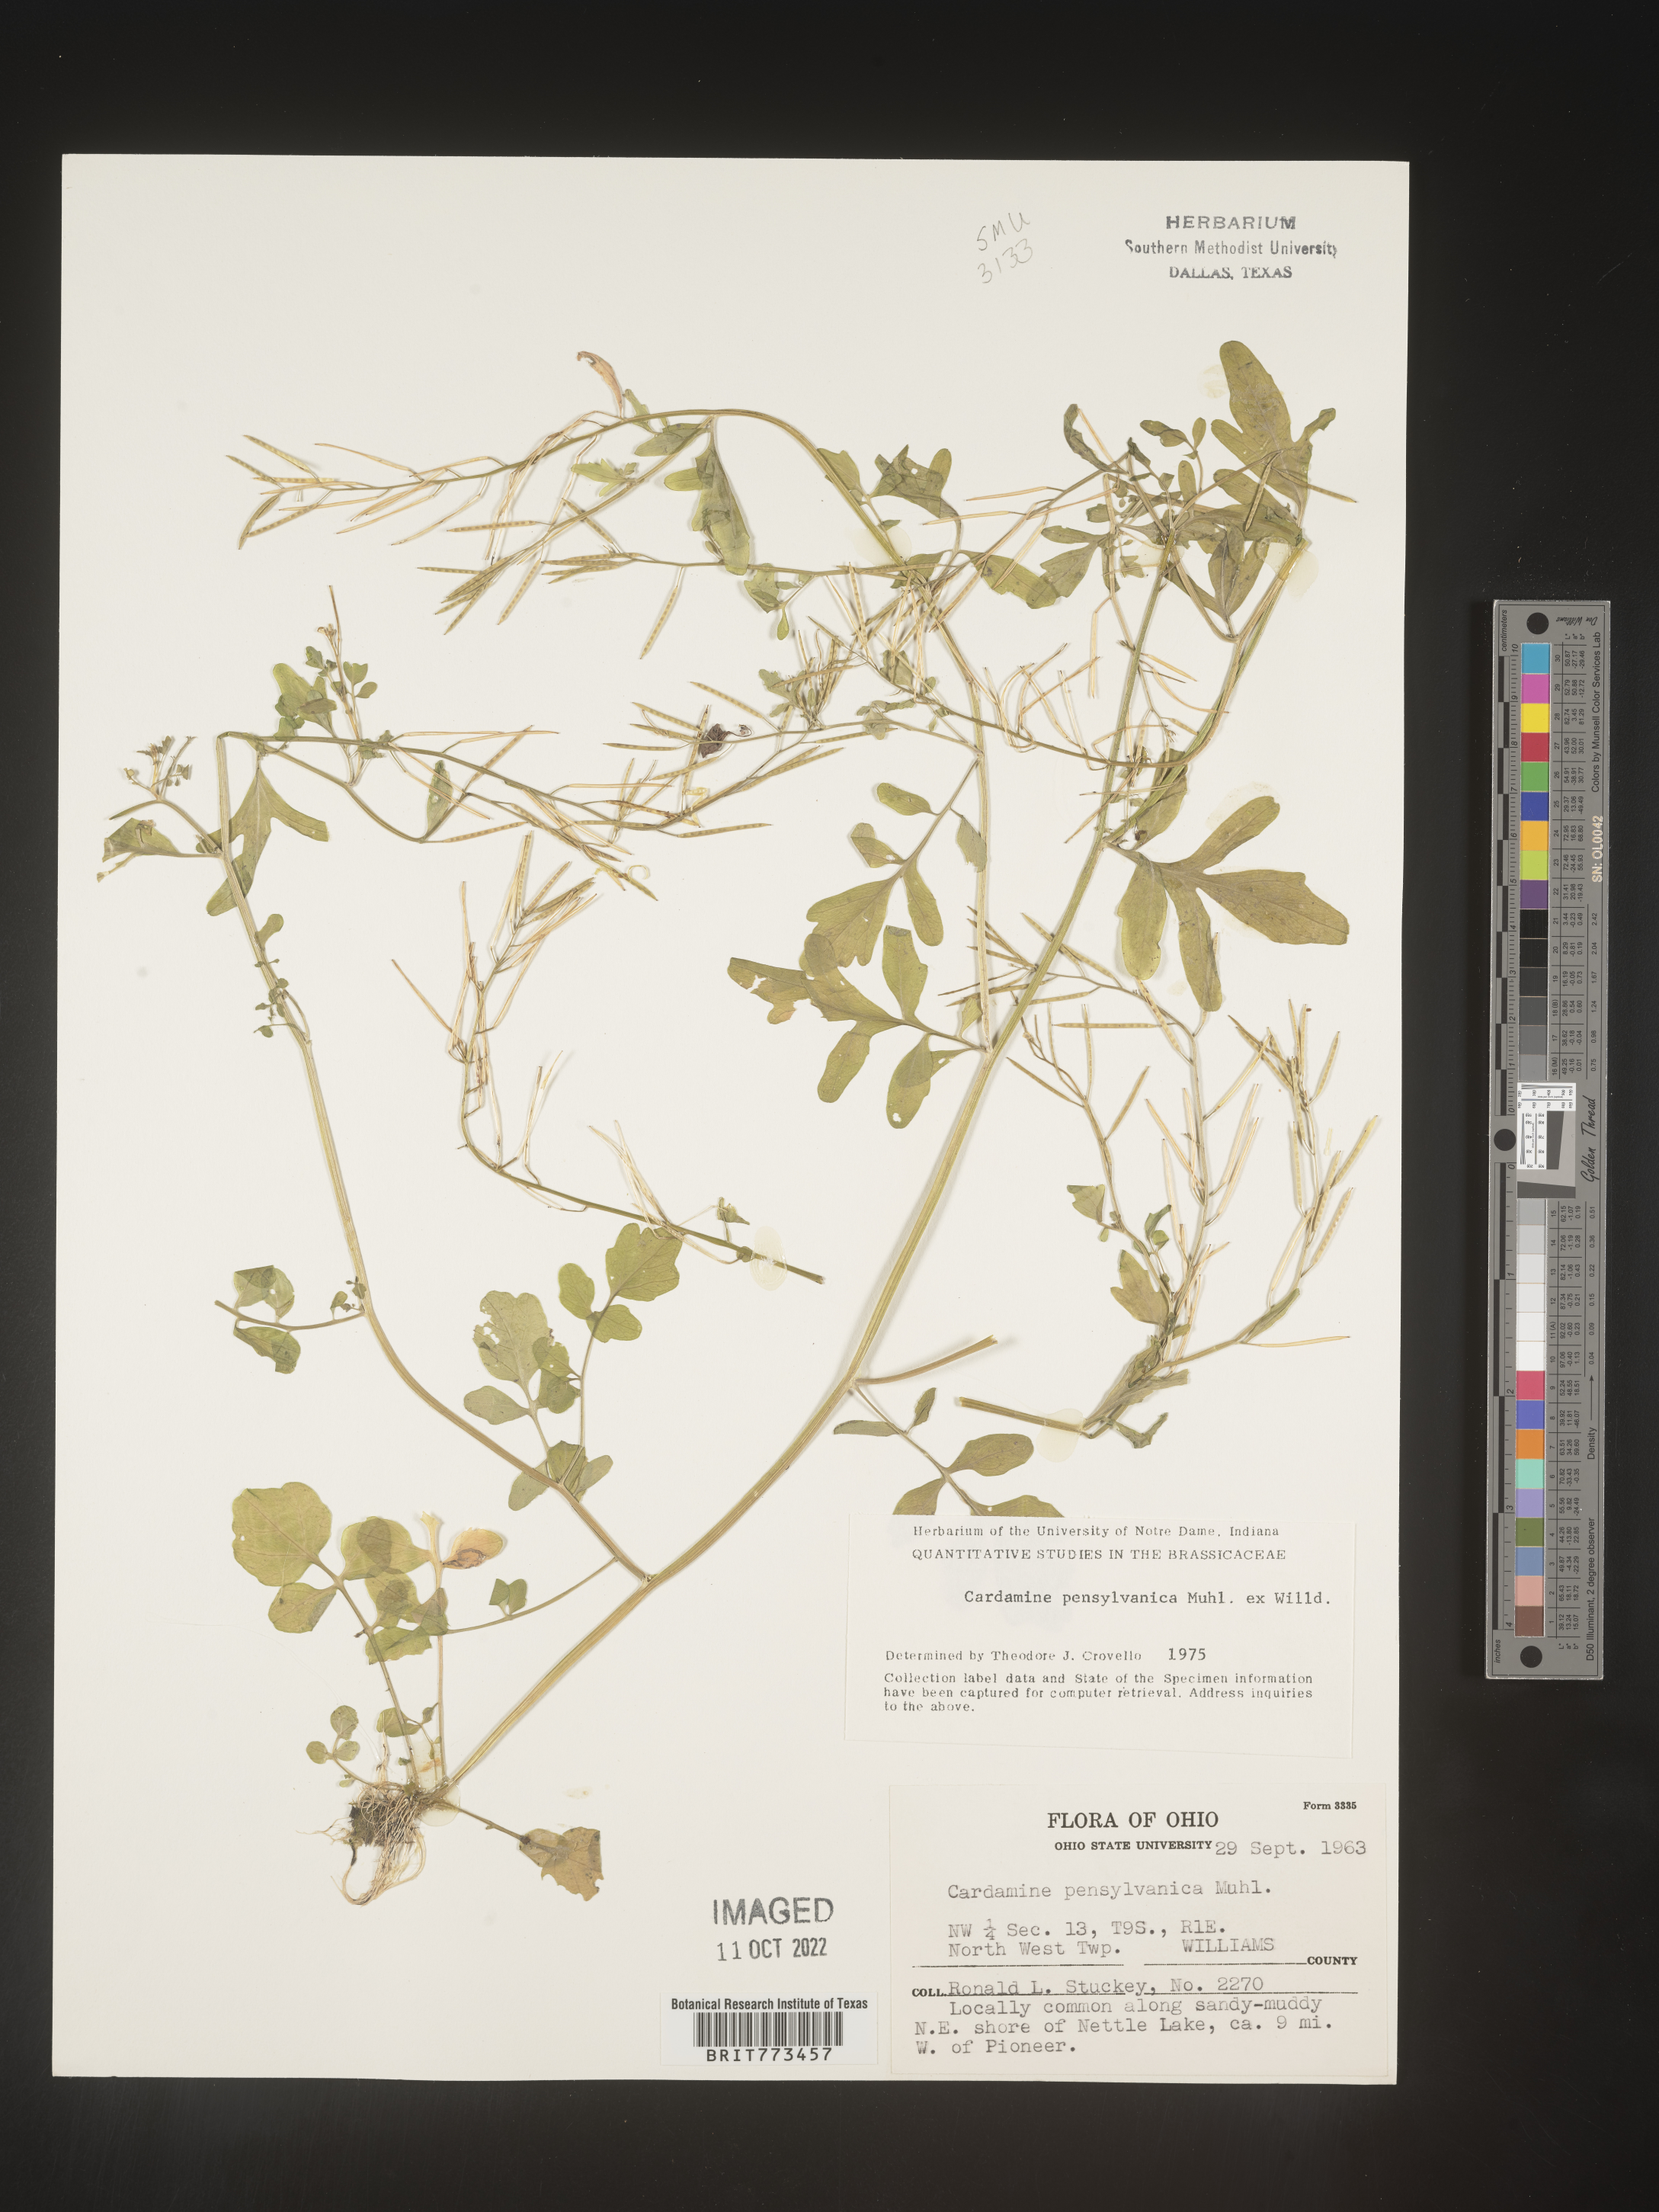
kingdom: Plantae
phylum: Tracheophyta
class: Magnoliopsida
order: Brassicales
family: Brassicaceae
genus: Cardamine
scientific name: Cardamine pensylvanica
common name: Pennsylvania bittercress
